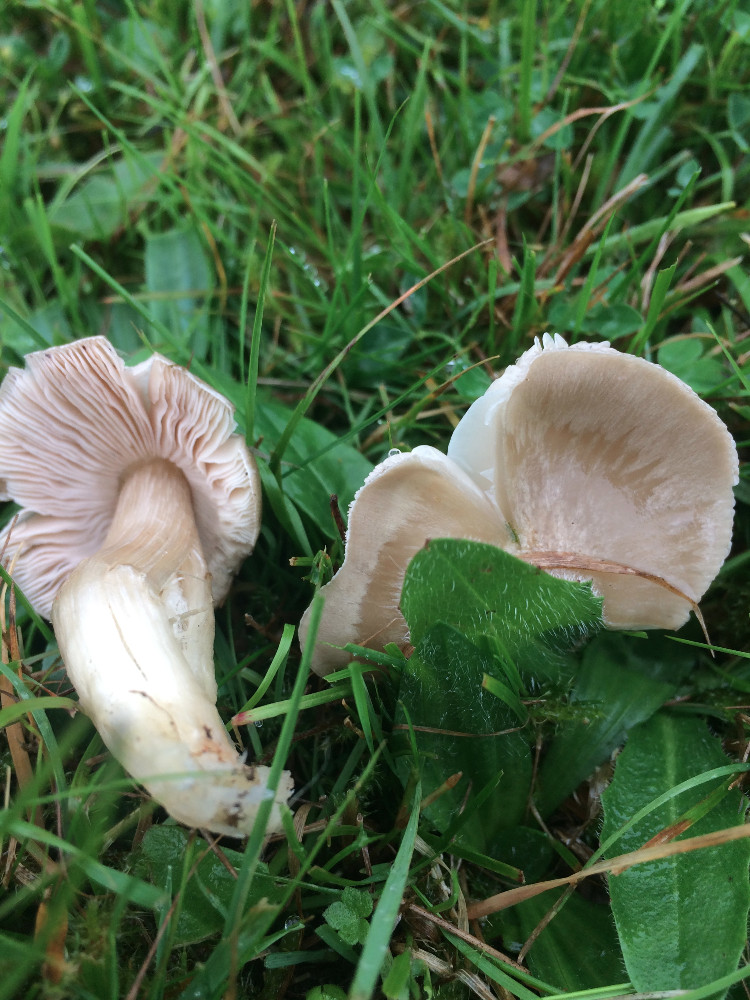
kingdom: Fungi
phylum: Basidiomycota
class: Agaricomycetes
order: Agaricales
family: Entolomataceae
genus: Entoloma
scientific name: Entoloma prunuloides
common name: mel-rødblad
